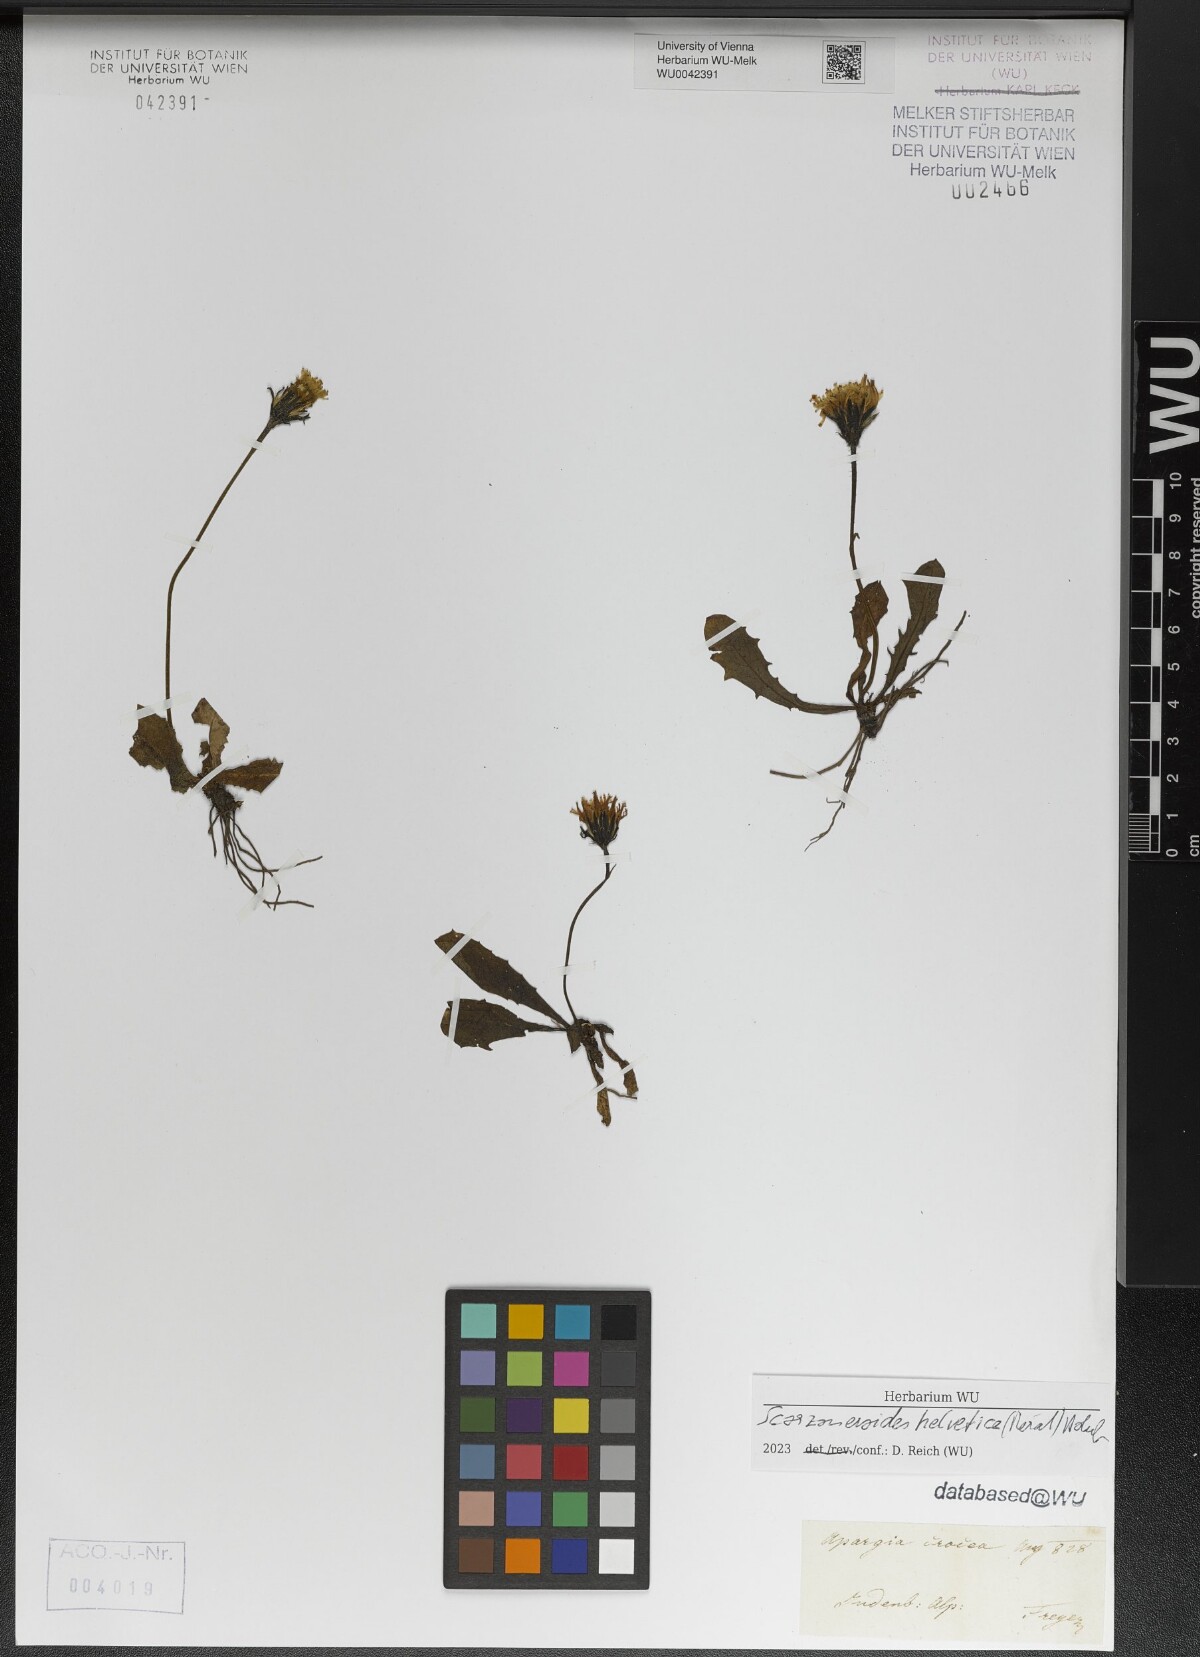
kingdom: Plantae
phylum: Tracheophyta
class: Magnoliopsida
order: Asterales
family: Asteraceae
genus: Scorzoneroides
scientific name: Scorzoneroides helvetica
